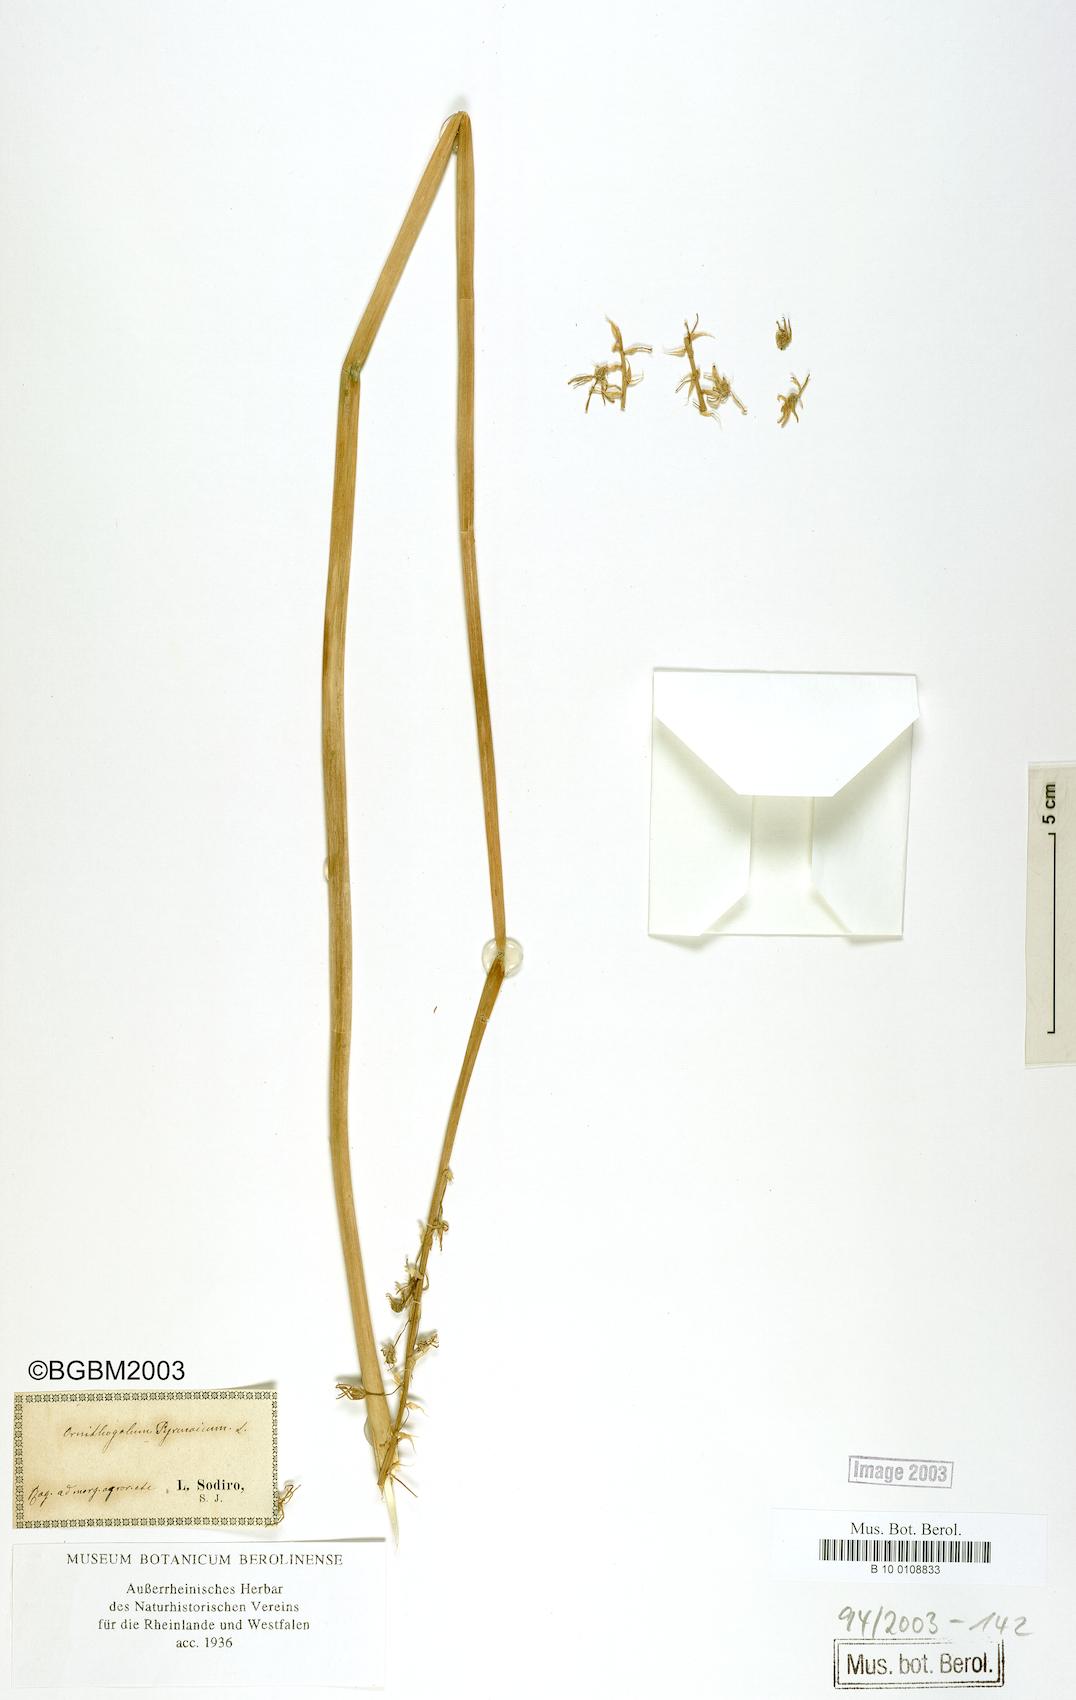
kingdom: Plantae
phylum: Tracheophyta
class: Liliopsida
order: Asparagales
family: Asparagaceae
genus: Ornithogalum
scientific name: Ornithogalum pyrenaicum
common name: Spiked star-of-bethlehem
